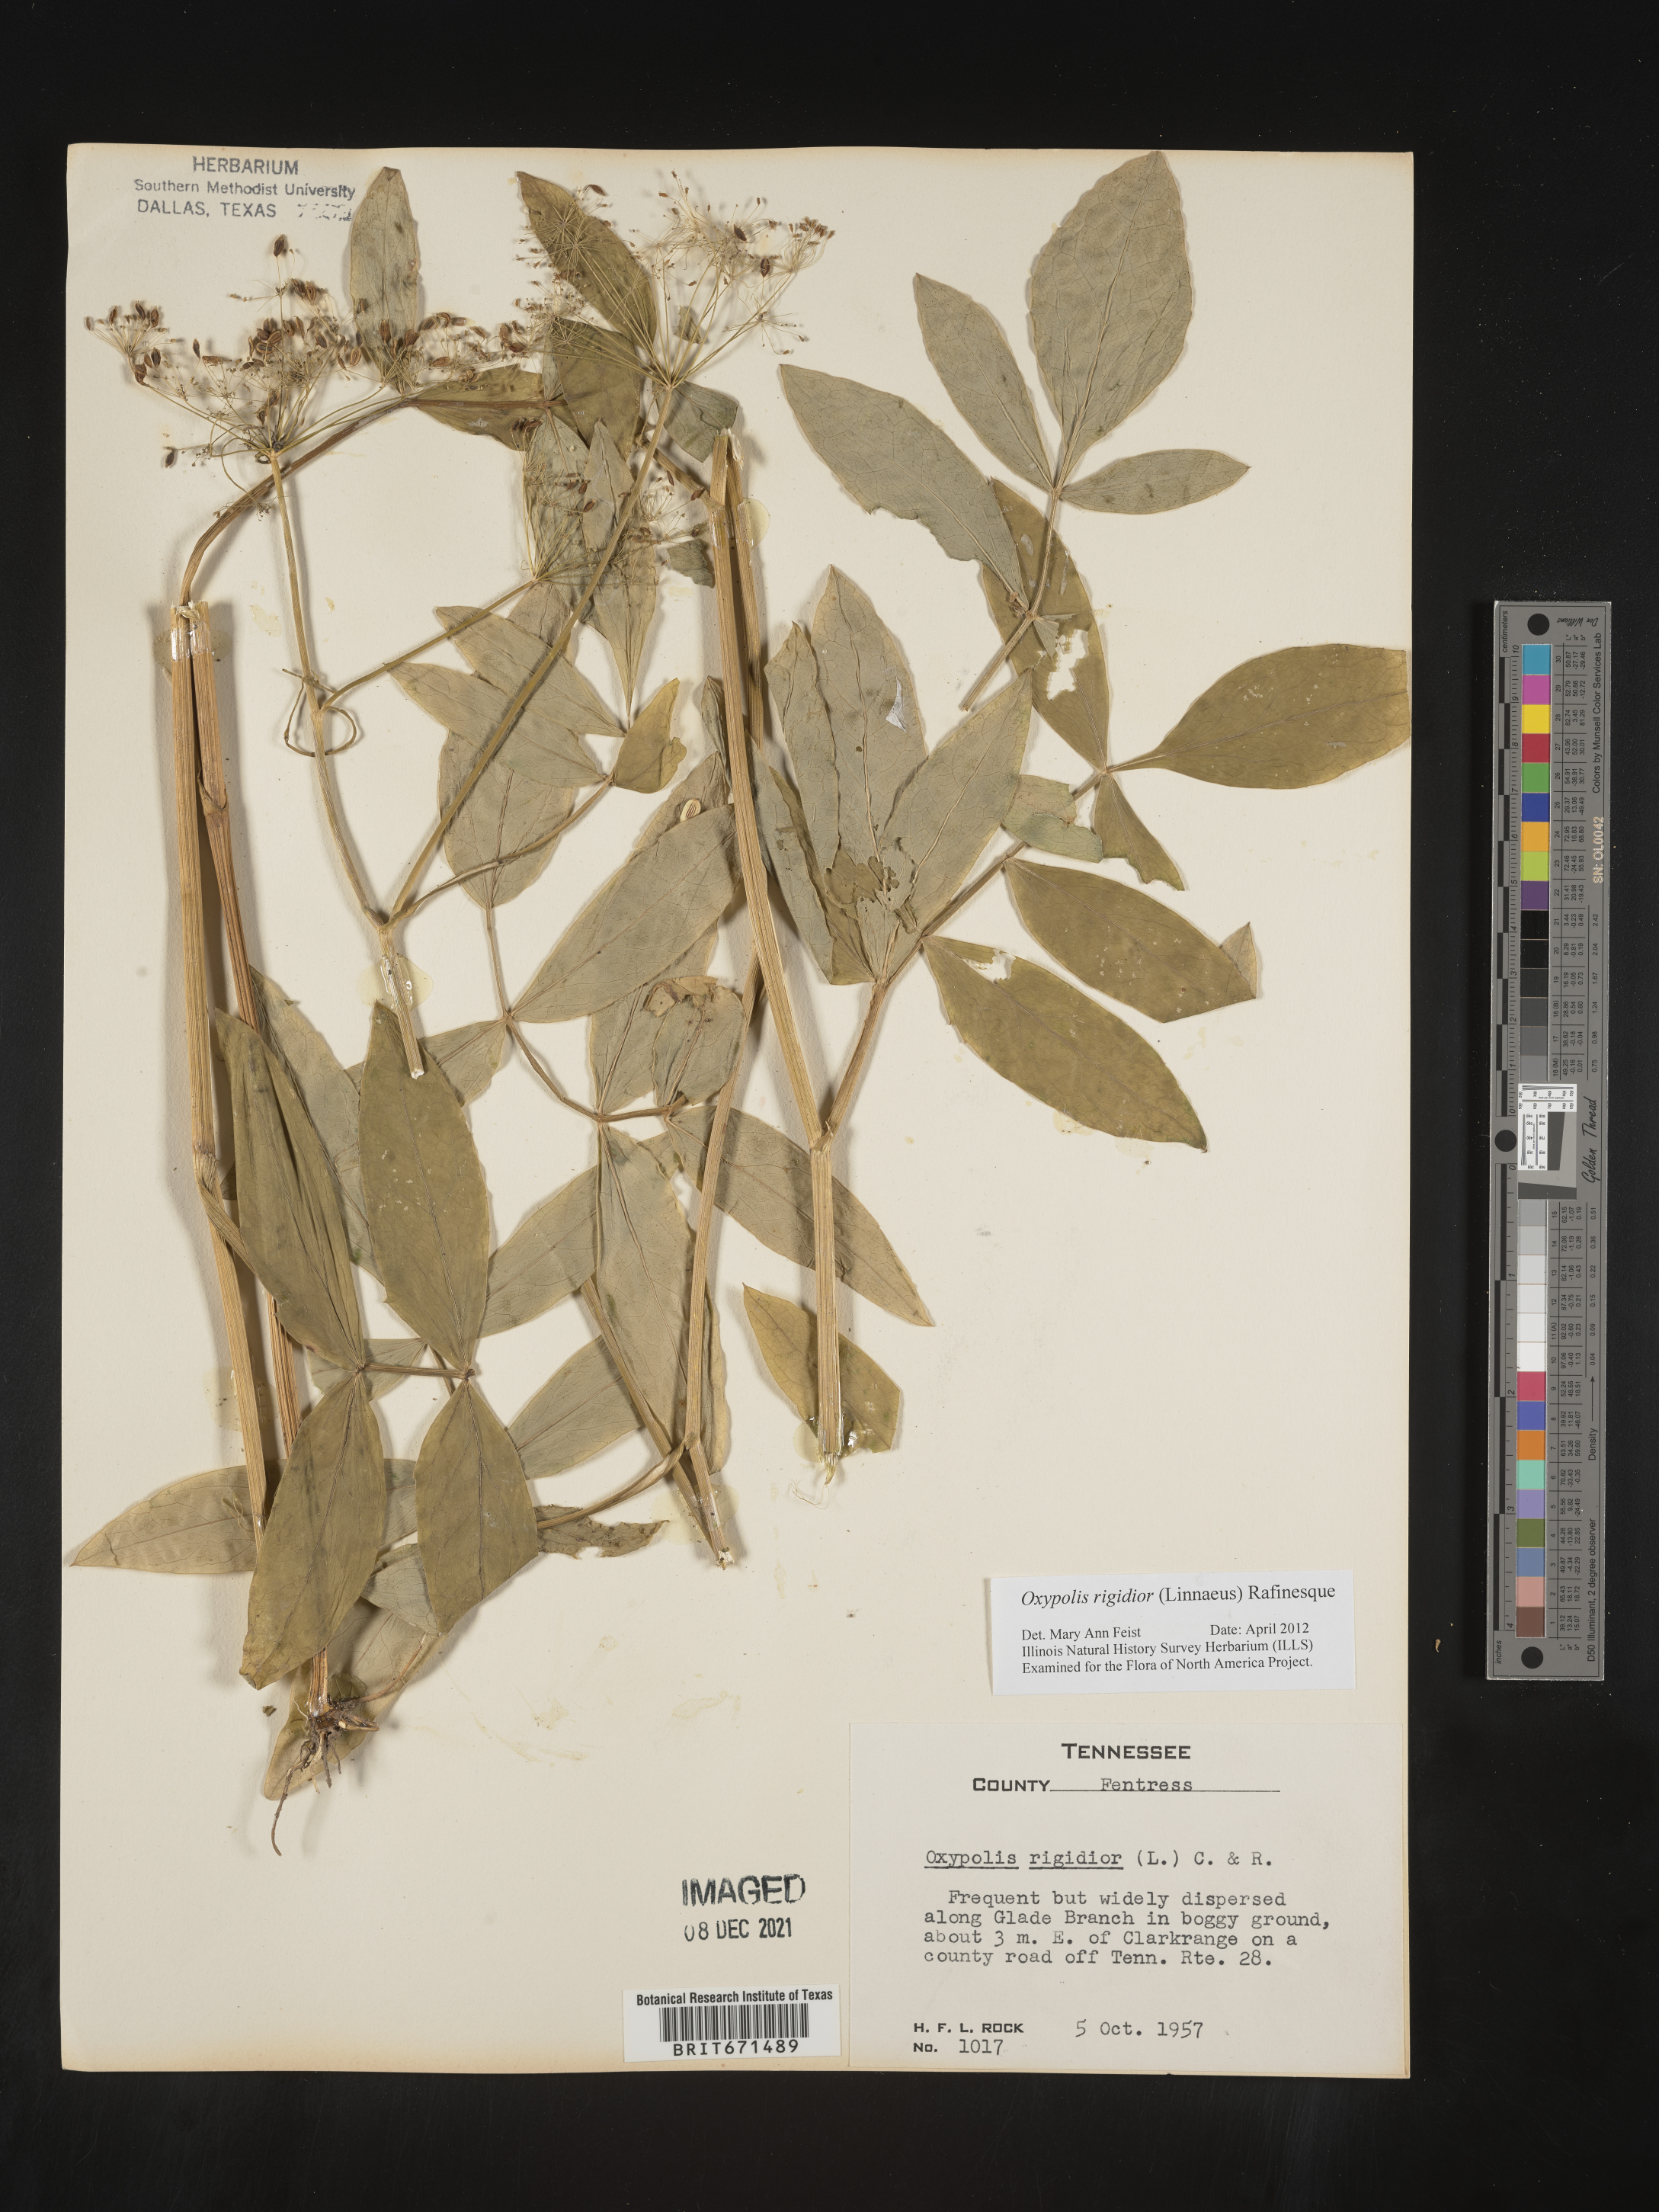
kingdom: Plantae
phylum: Tracheophyta
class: Magnoliopsida
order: Apiales
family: Apiaceae
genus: Oxypolis
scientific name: Oxypolis rigidior
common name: Cowbane
